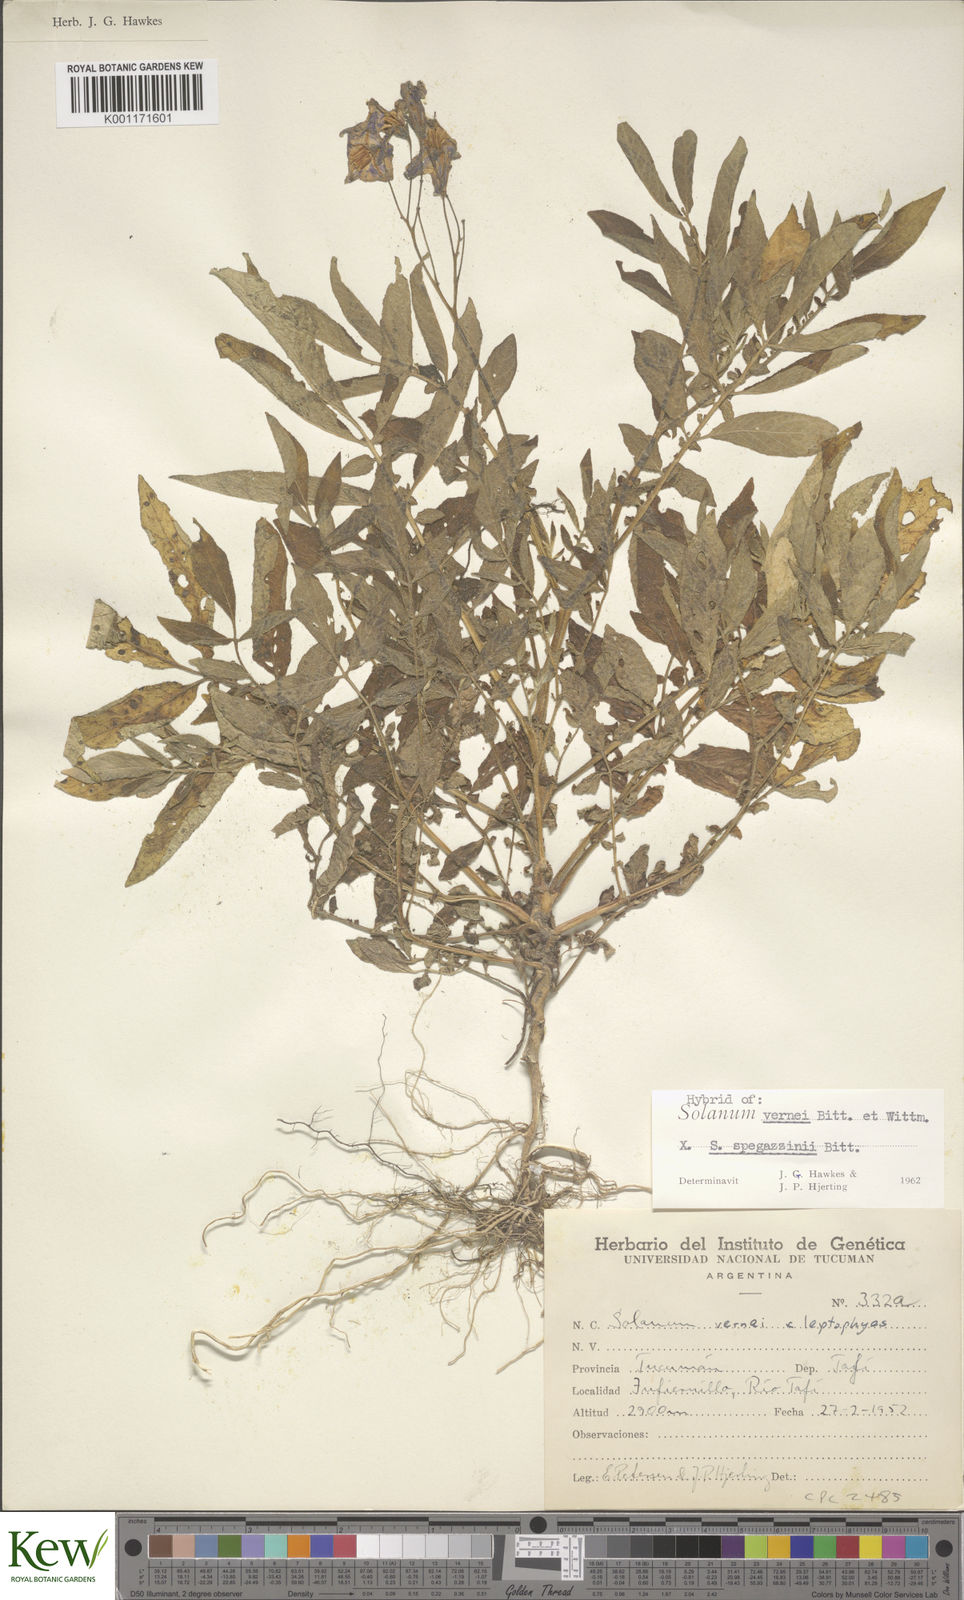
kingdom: Plantae
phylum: Tracheophyta
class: Magnoliopsida
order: Solanales
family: Solanaceae
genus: Solanum
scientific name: Solanum vernei
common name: Purple potato
